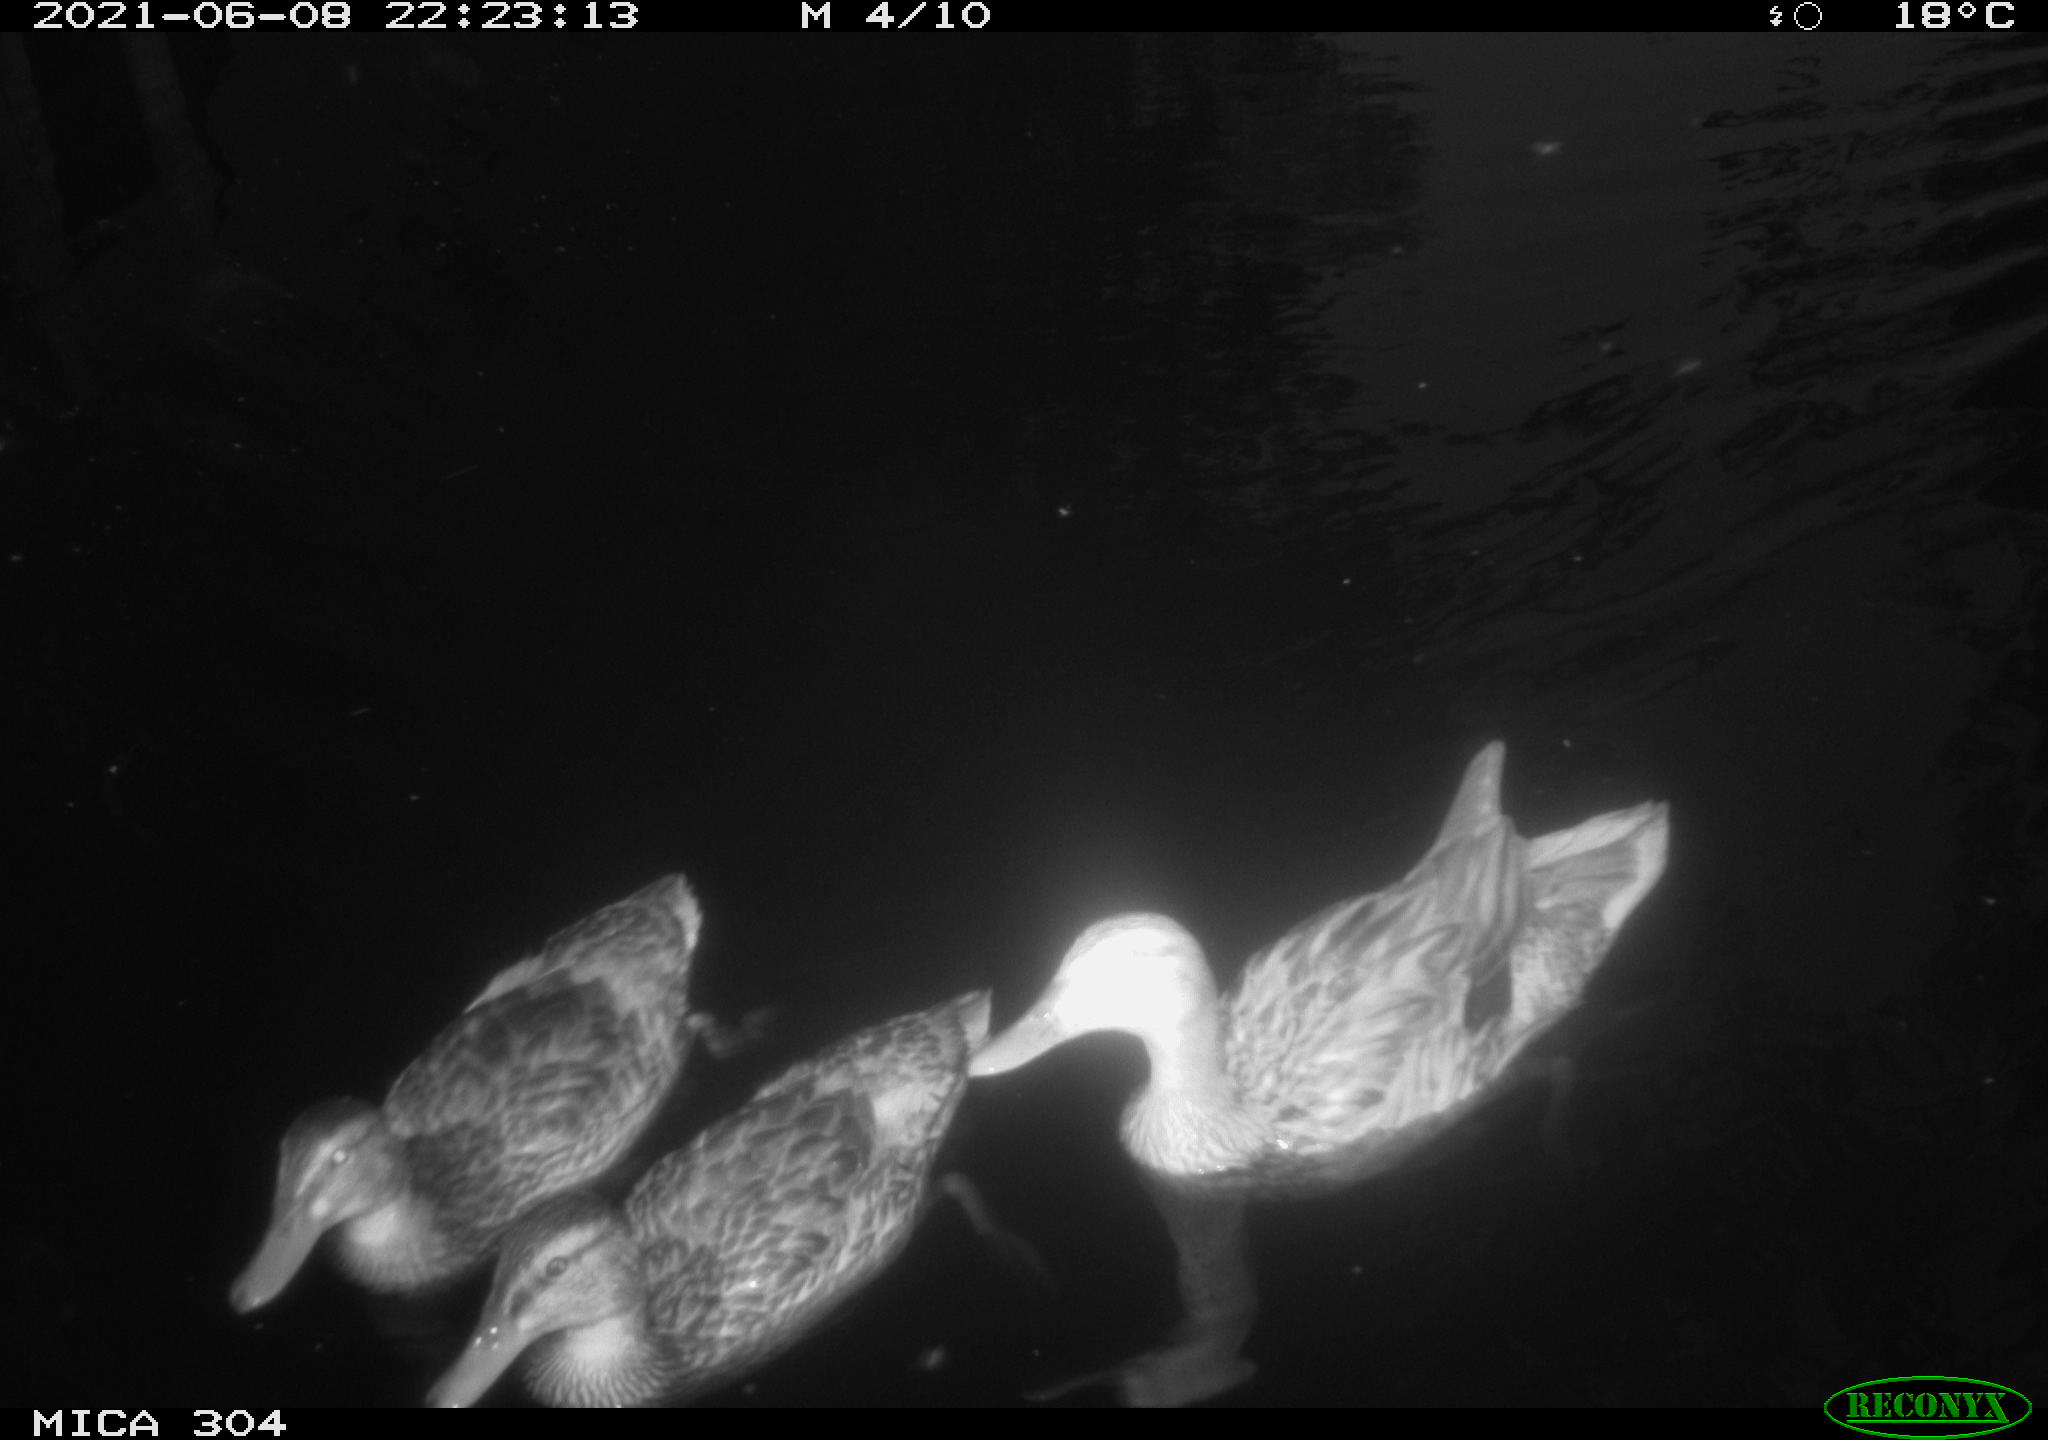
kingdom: Animalia
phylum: Chordata
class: Aves
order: Anseriformes
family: Anatidae
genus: Anas
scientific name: Anas platyrhynchos
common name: Mallard
